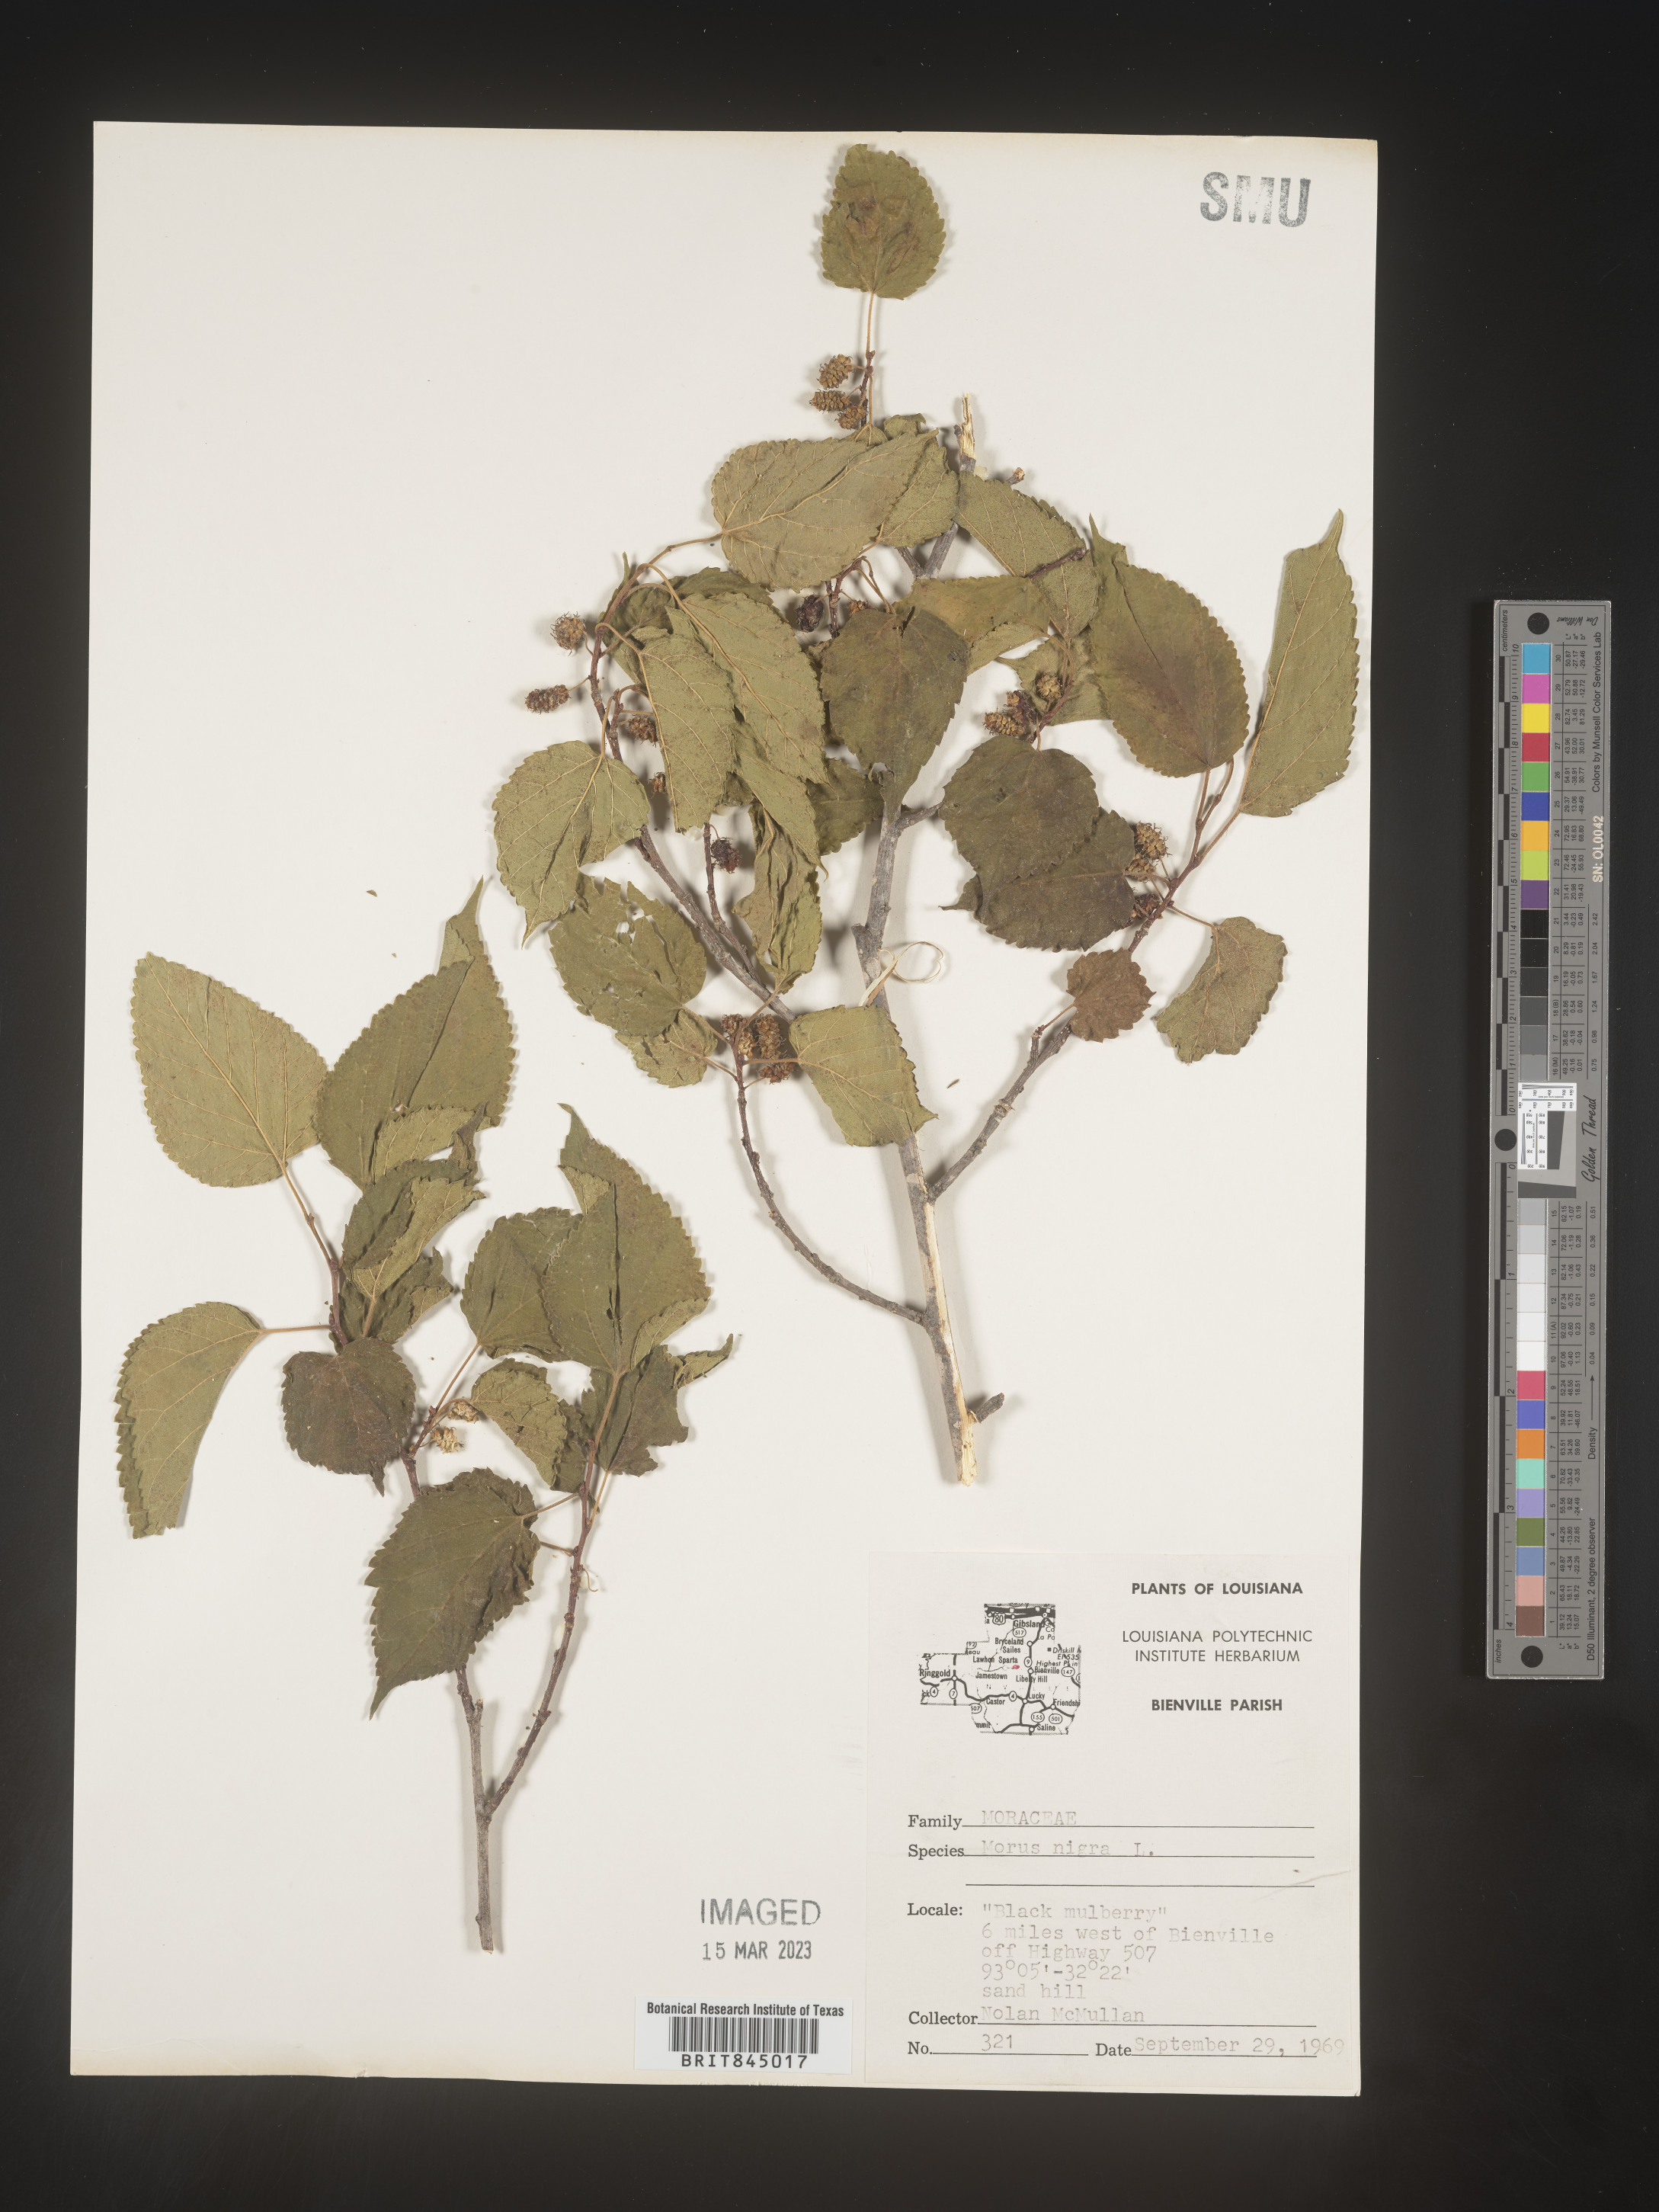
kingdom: Plantae
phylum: Tracheophyta
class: Magnoliopsida
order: Rosales
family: Moraceae
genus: Morus
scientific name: Morus alba
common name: White mulberry
